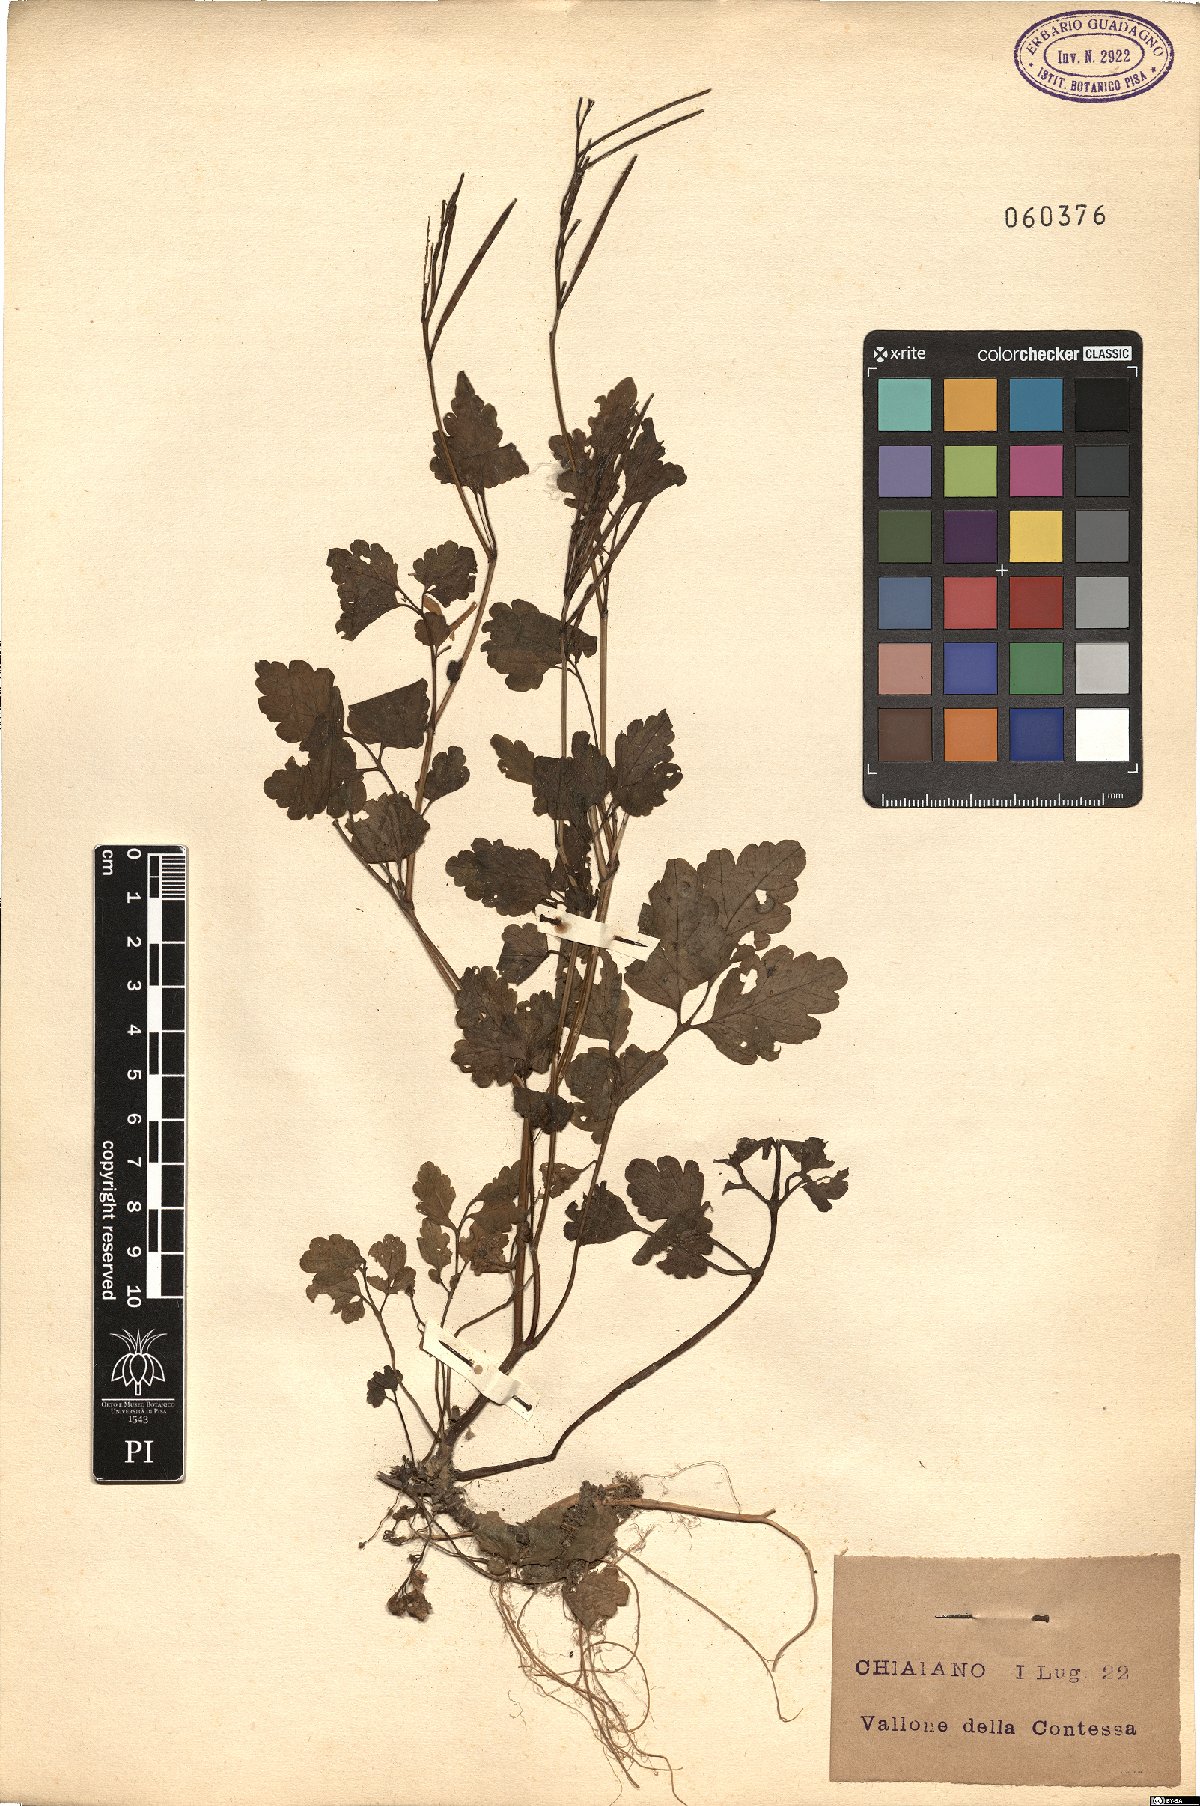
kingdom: Plantae
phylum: Tracheophyta
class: Magnoliopsida
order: Ranunculales
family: Papaveraceae
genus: Chelidonium
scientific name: Chelidonium majus
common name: Greater celandine
